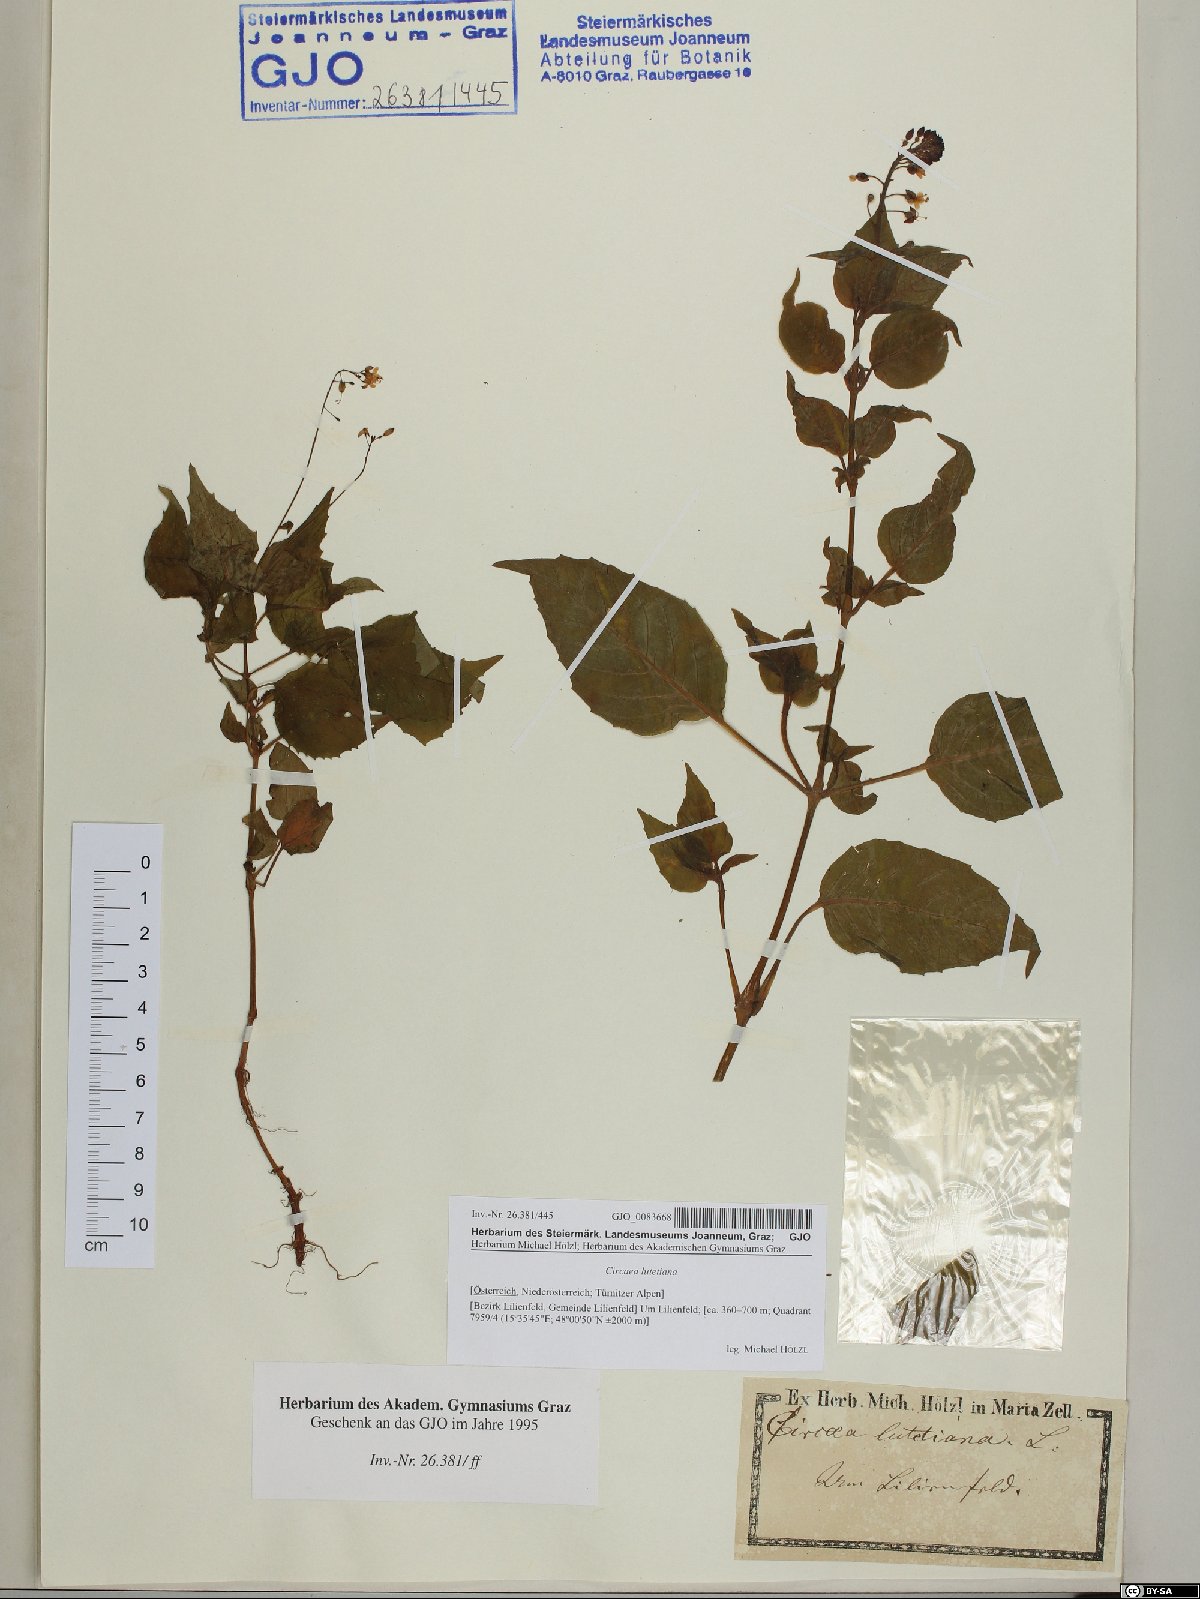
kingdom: Plantae
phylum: Tracheophyta
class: Magnoliopsida
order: Myrtales
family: Onagraceae
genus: Circaea
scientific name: Circaea lutetiana
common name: Enchanter's-nightshade
